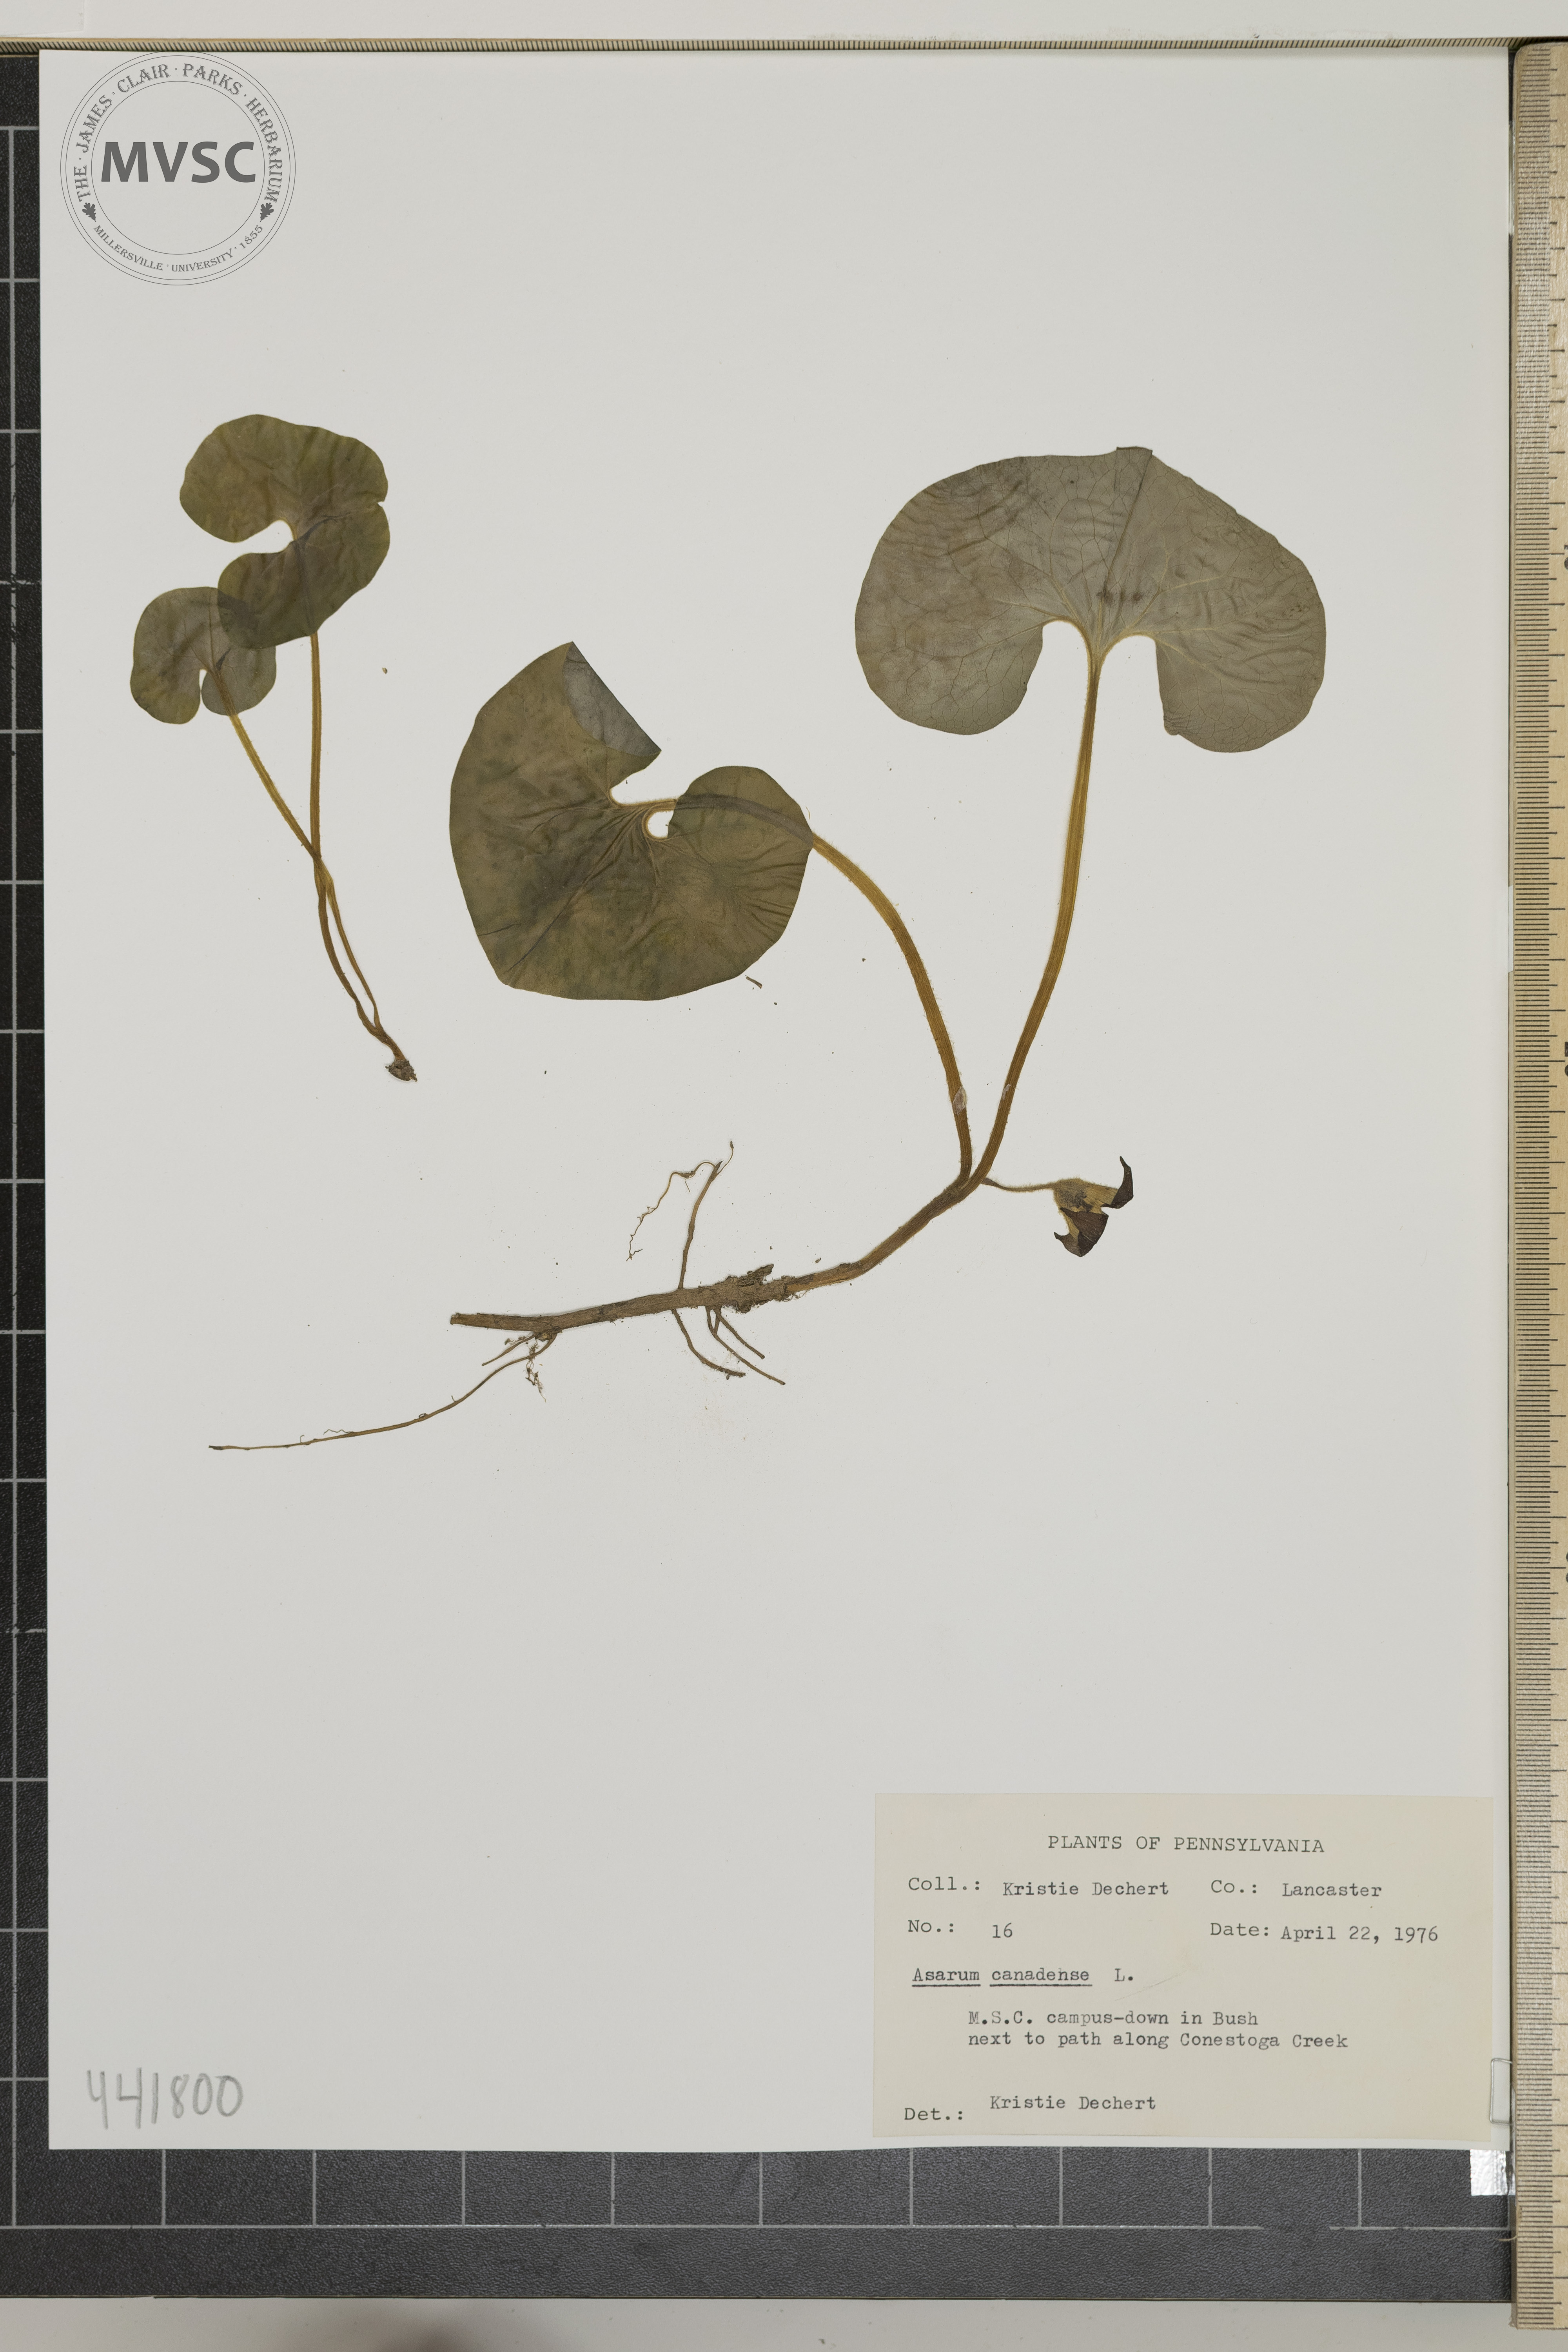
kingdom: Plantae
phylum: Tracheophyta
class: Magnoliopsida
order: Piperales
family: Aristolochiaceae
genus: Asarum
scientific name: Asarum canadense
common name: Wild ginger
